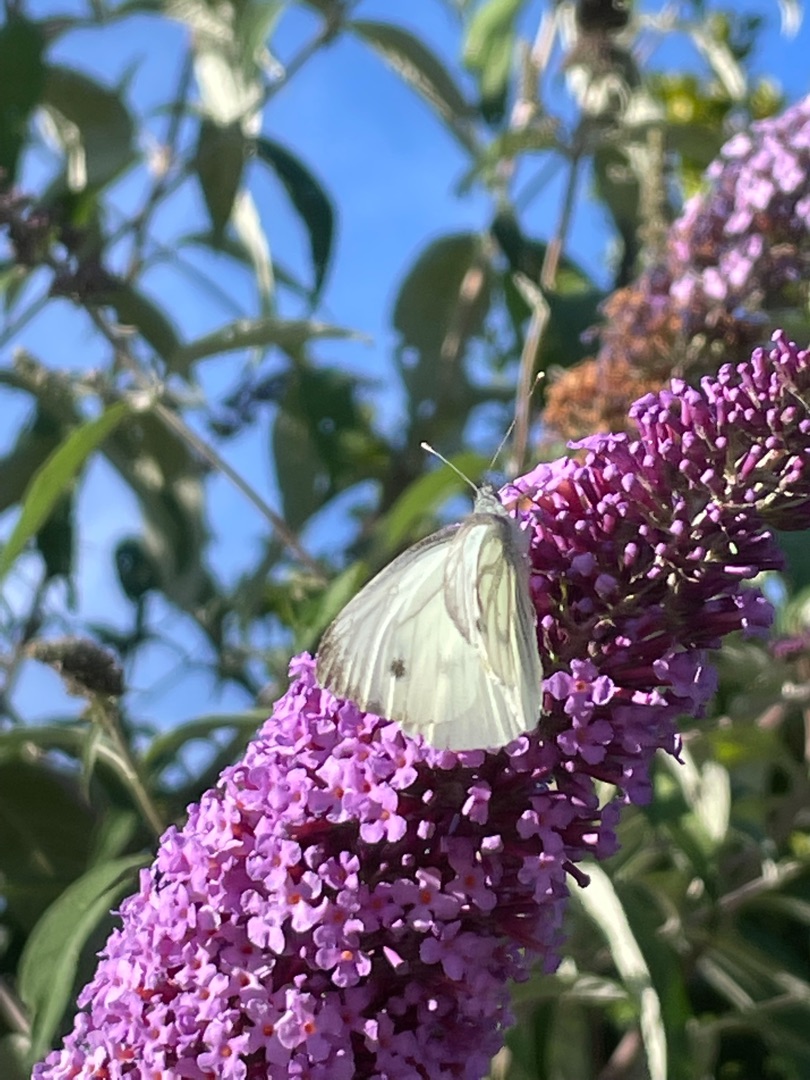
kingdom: Animalia
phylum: Arthropoda
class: Insecta
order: Lepidoptera
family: Pieridae
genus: Pieris
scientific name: Pieris napi
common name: Grønåret kålsommerfugl
